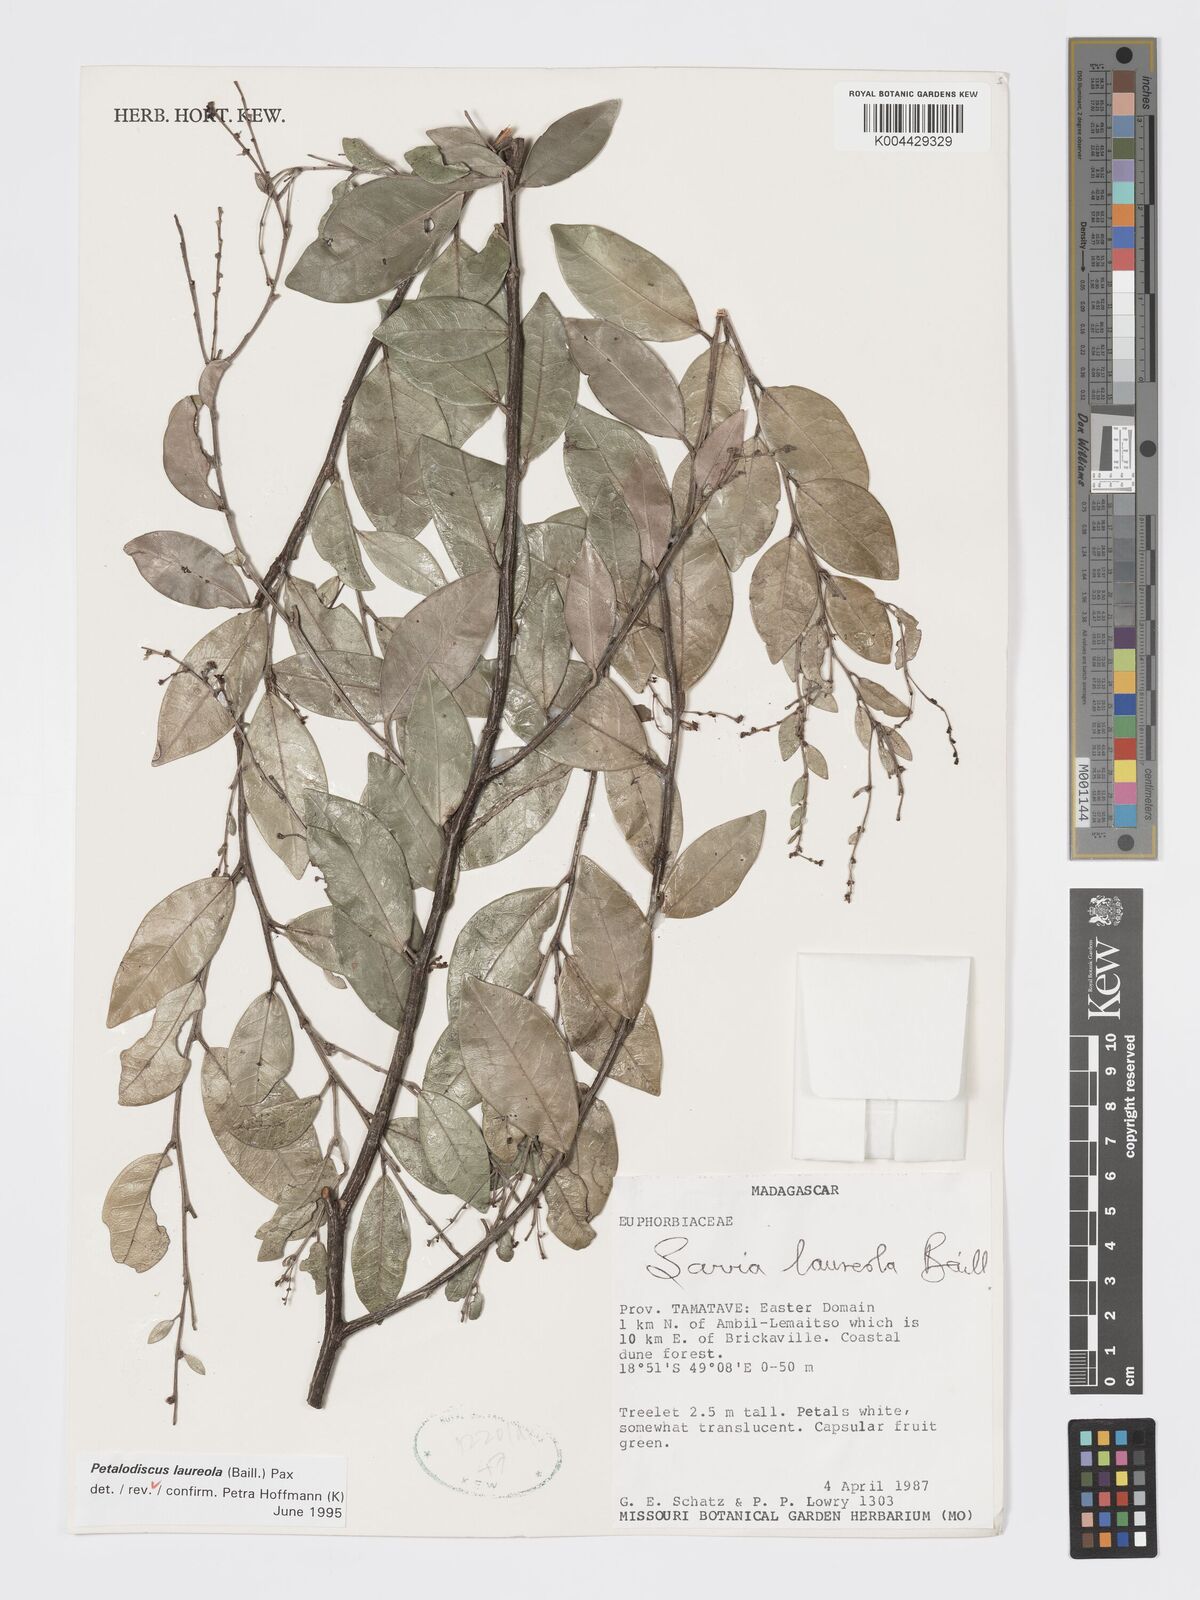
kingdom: Plantae
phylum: Tracheophyta
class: Magnoliopsida
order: Malpighiales
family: Phyllanthaceae
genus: Wielandia
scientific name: Wielandia laureola
